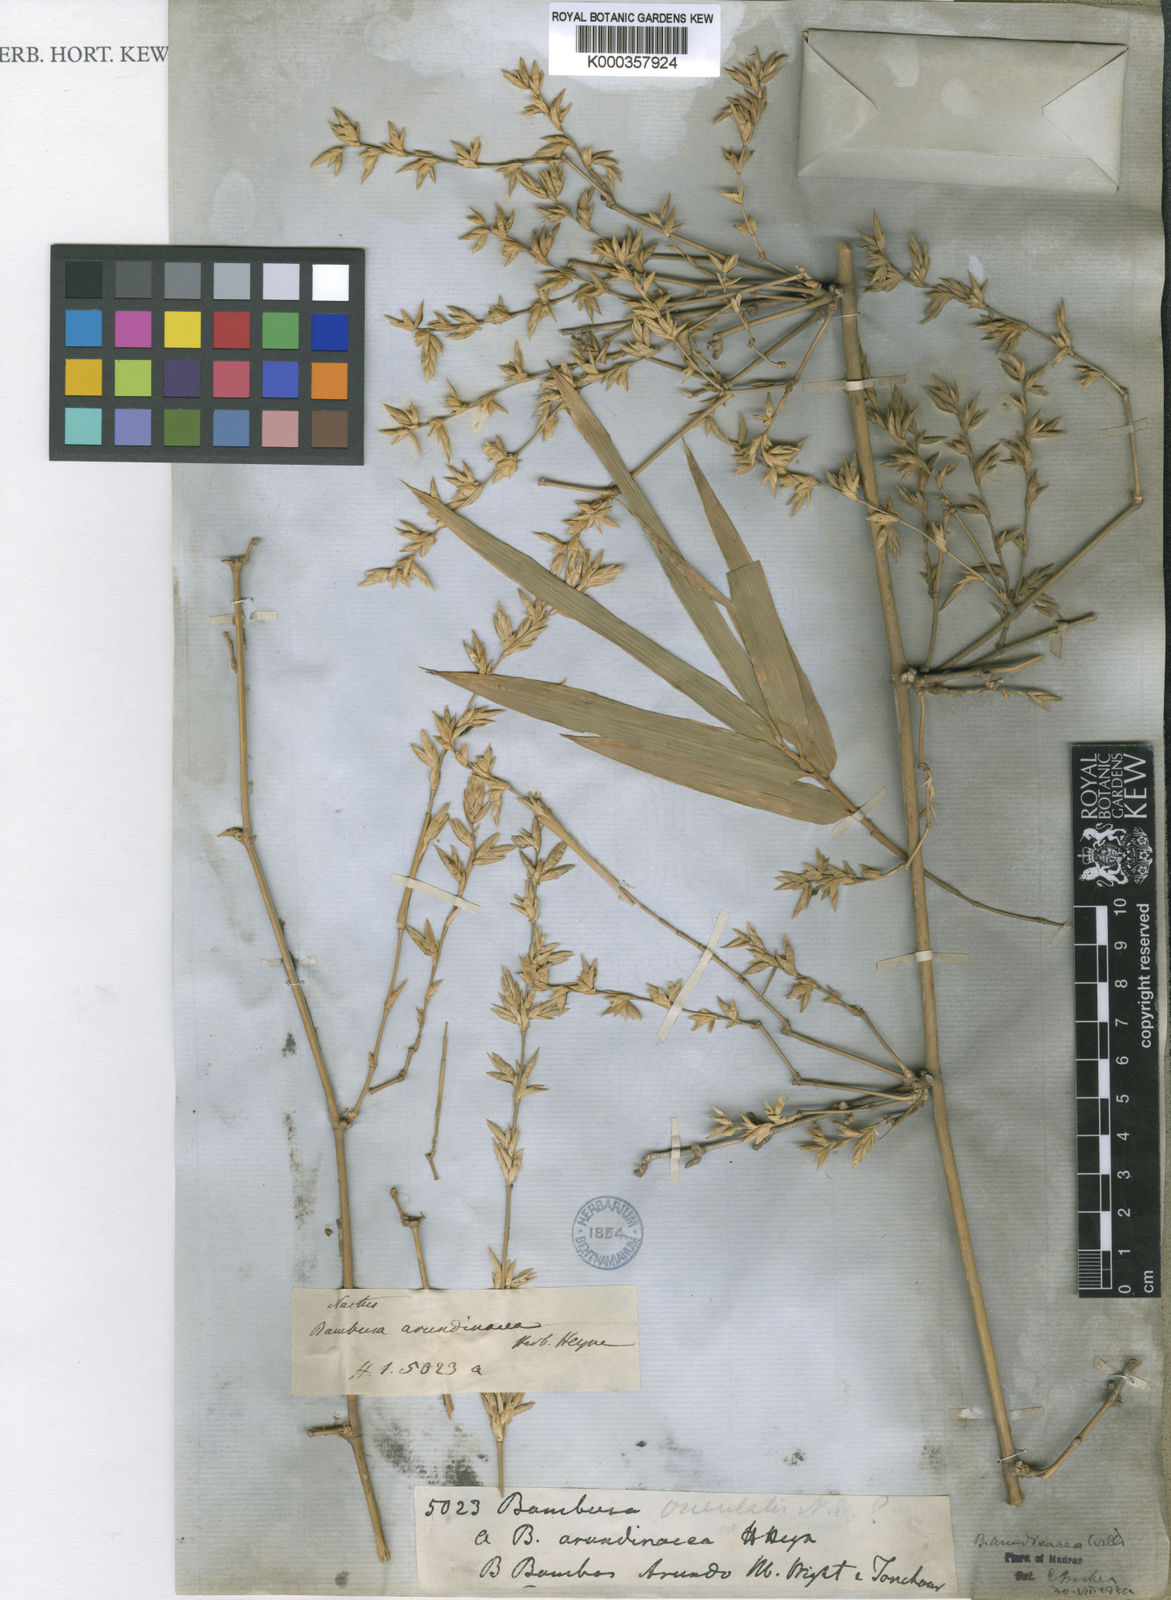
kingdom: Plantae
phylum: Tracheophyta
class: Liliopsida
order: Poales
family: Poaceae
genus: Bambusa
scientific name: Bambusa bambos
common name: Indian thorny bamboo
